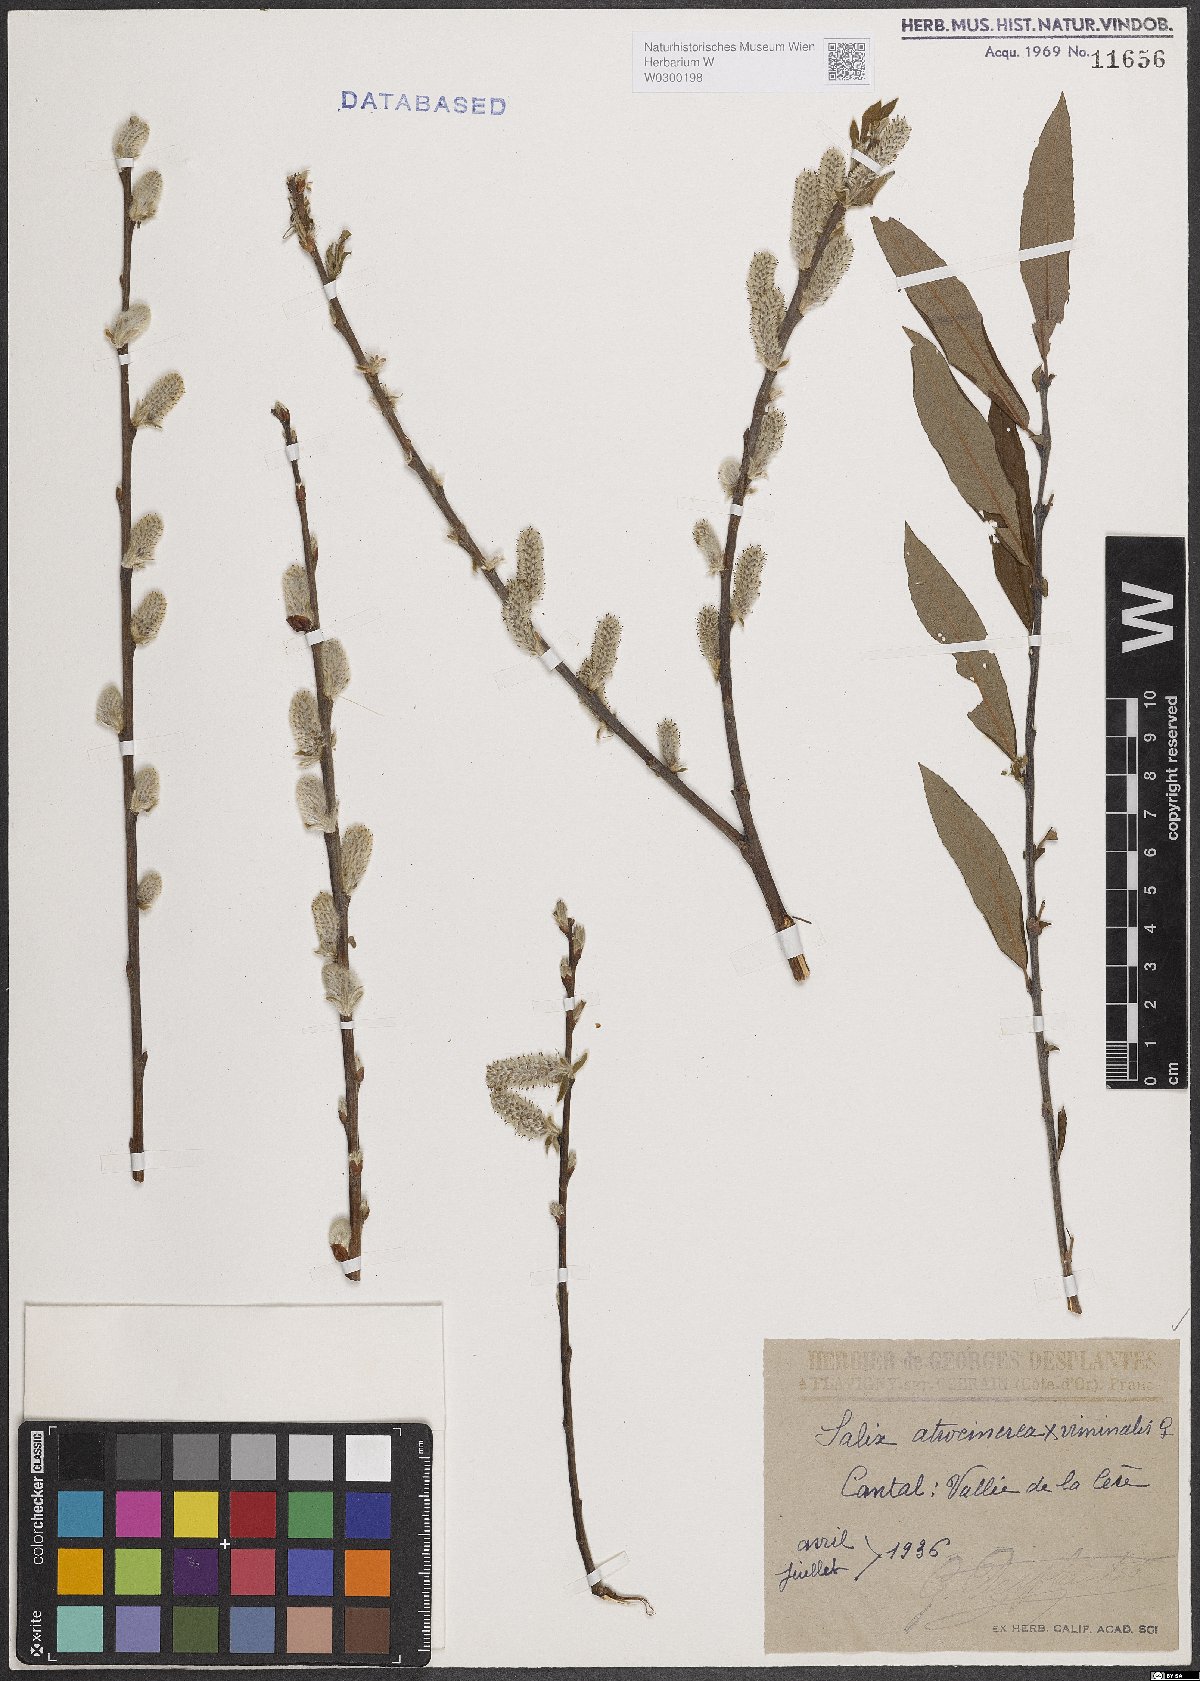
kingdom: Plantae
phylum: Tracheophyta
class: Magnoliopsida
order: Malpighiales
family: Salicaceae
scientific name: Salicaceae
